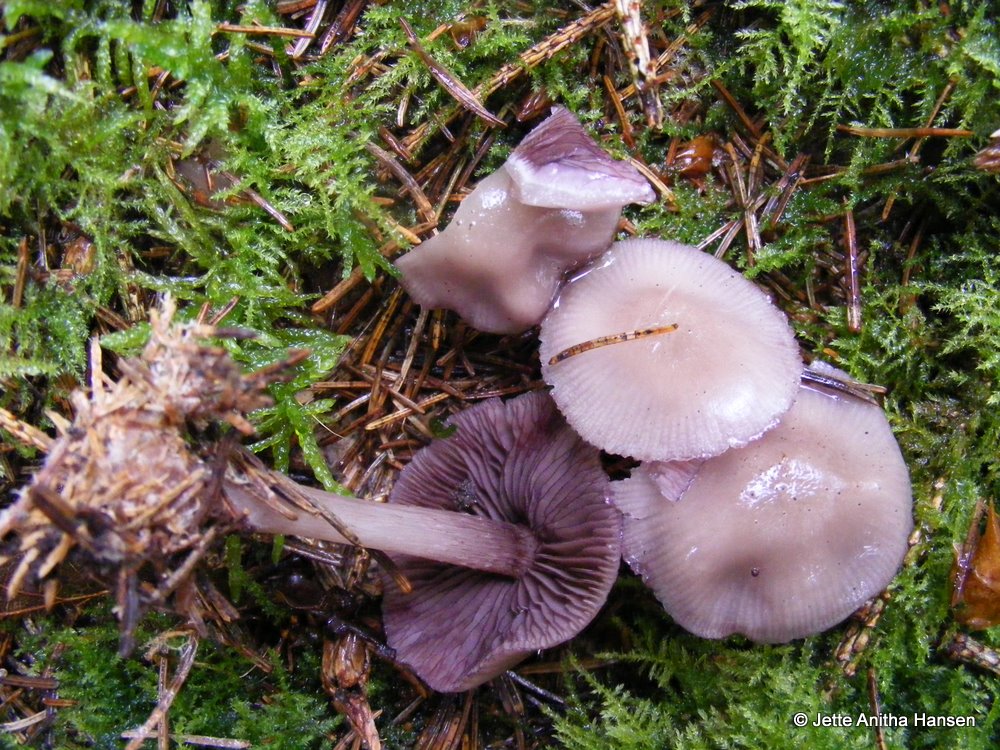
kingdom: Fungi
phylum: Basidiomycota
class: Agaricomycetes
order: Agaricales
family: Mycenaceae
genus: Mycena
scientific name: Mycena pelianthina
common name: mørkbladet huesvamp
